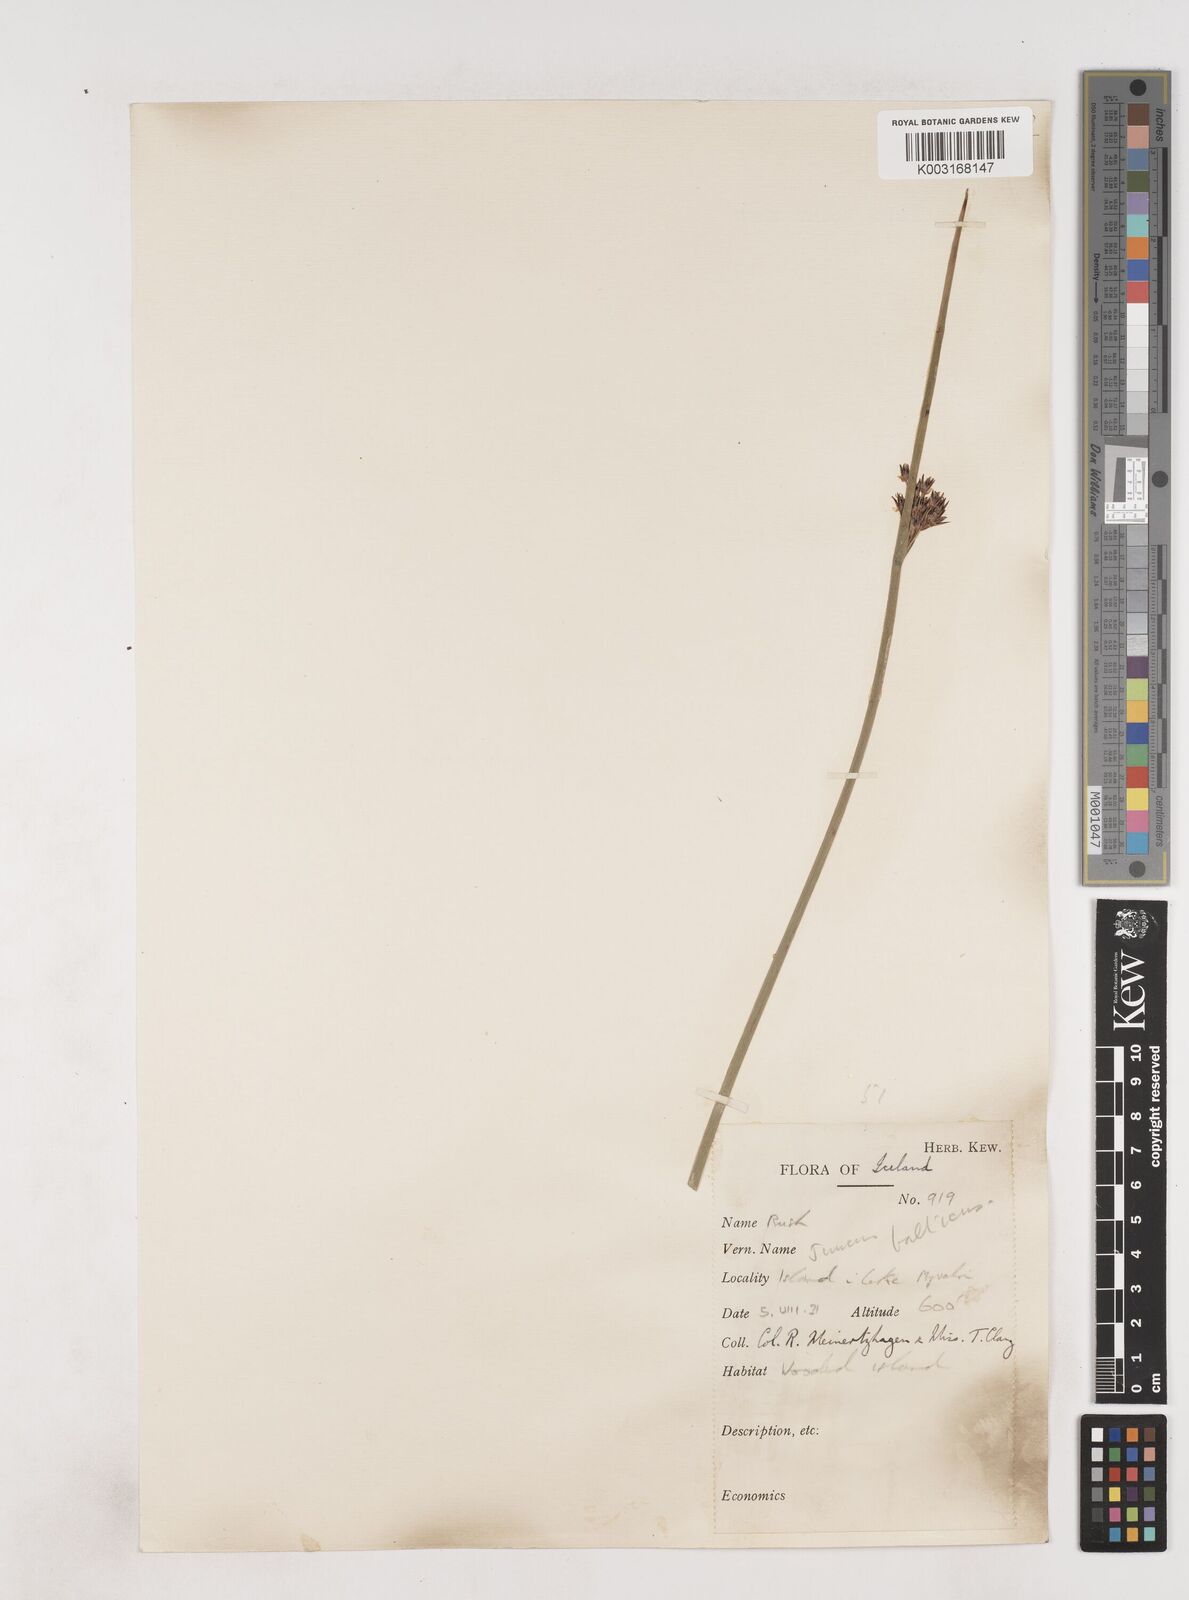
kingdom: Plantae
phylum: Tracheophyta
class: Liliopsida
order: Poales
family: Juncaceae
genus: Juncus
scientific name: Juncus balticus
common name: Baltic rush
